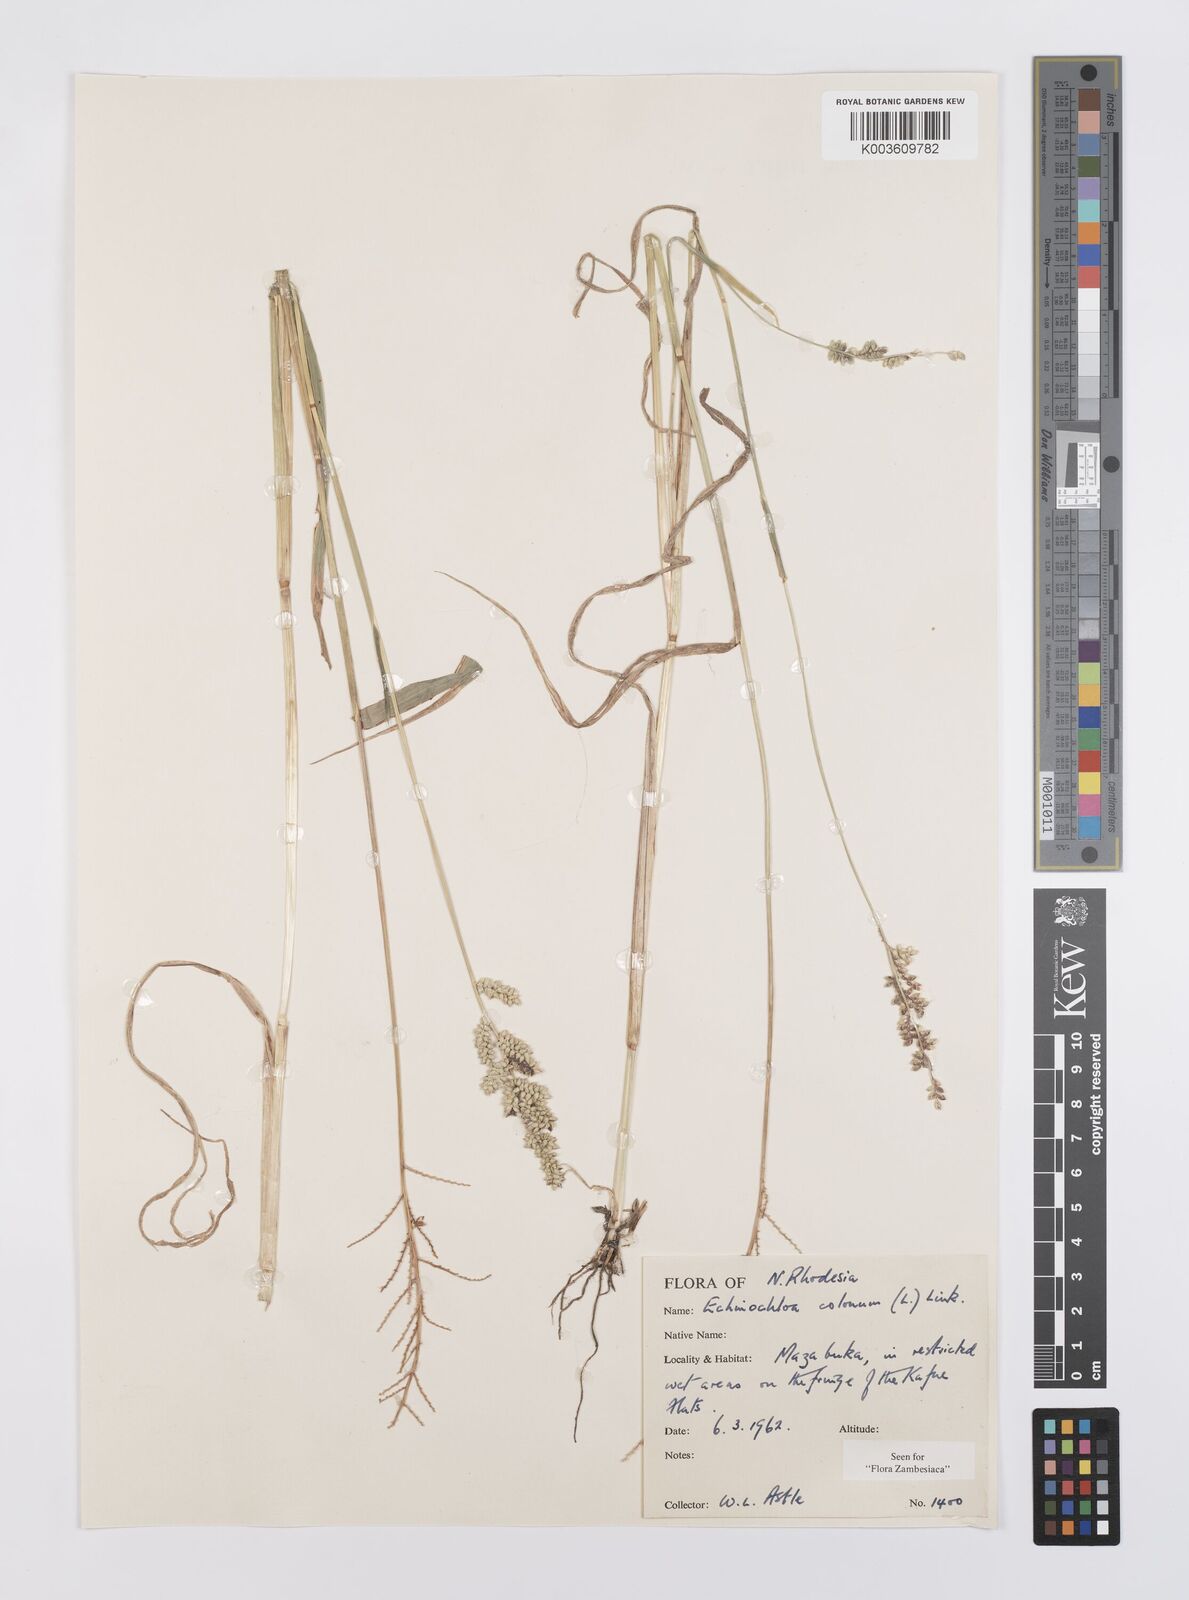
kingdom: Plantae
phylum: Tracheophyta
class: Liliopsida
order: Poales
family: Poaceae
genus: Echinochloa
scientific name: Echinochloa colonum
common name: Jungle rice
